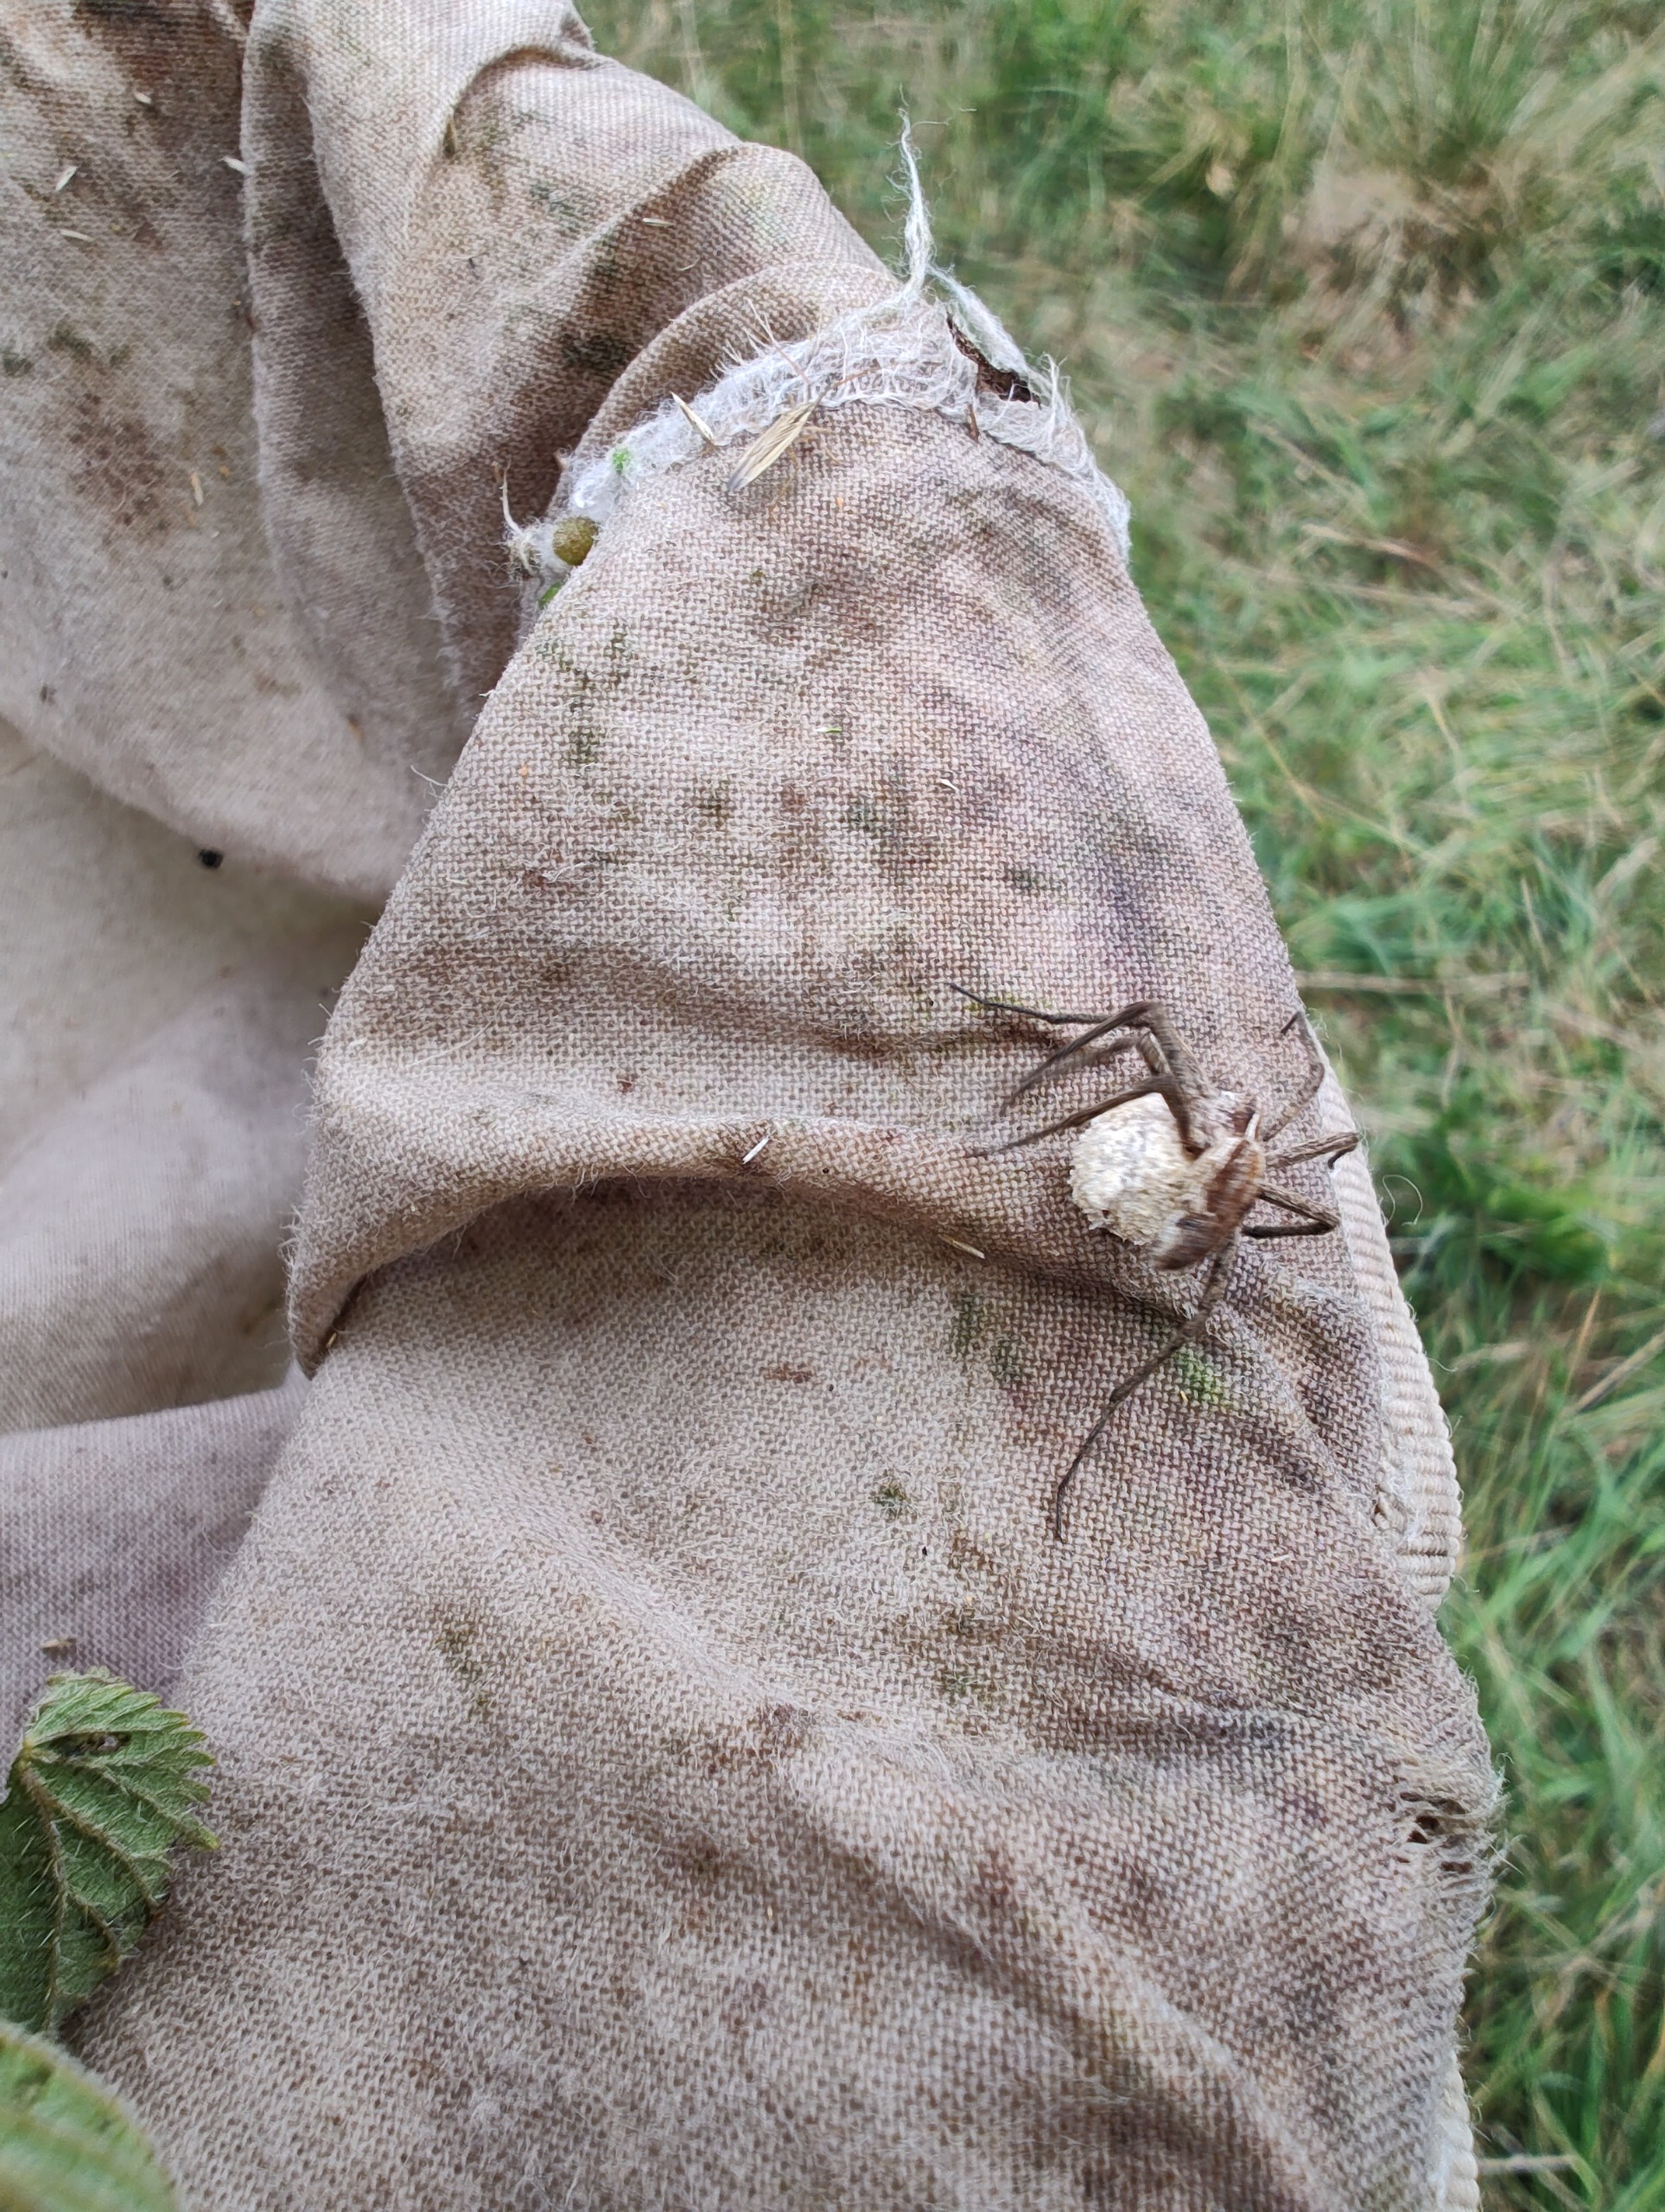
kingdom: Animalia
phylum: Arthropoda
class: Arachnida
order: Araneae
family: Pisauridae
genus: Pisaura
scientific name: Pisaura mirabilis
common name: Almindelig rovedderkop
